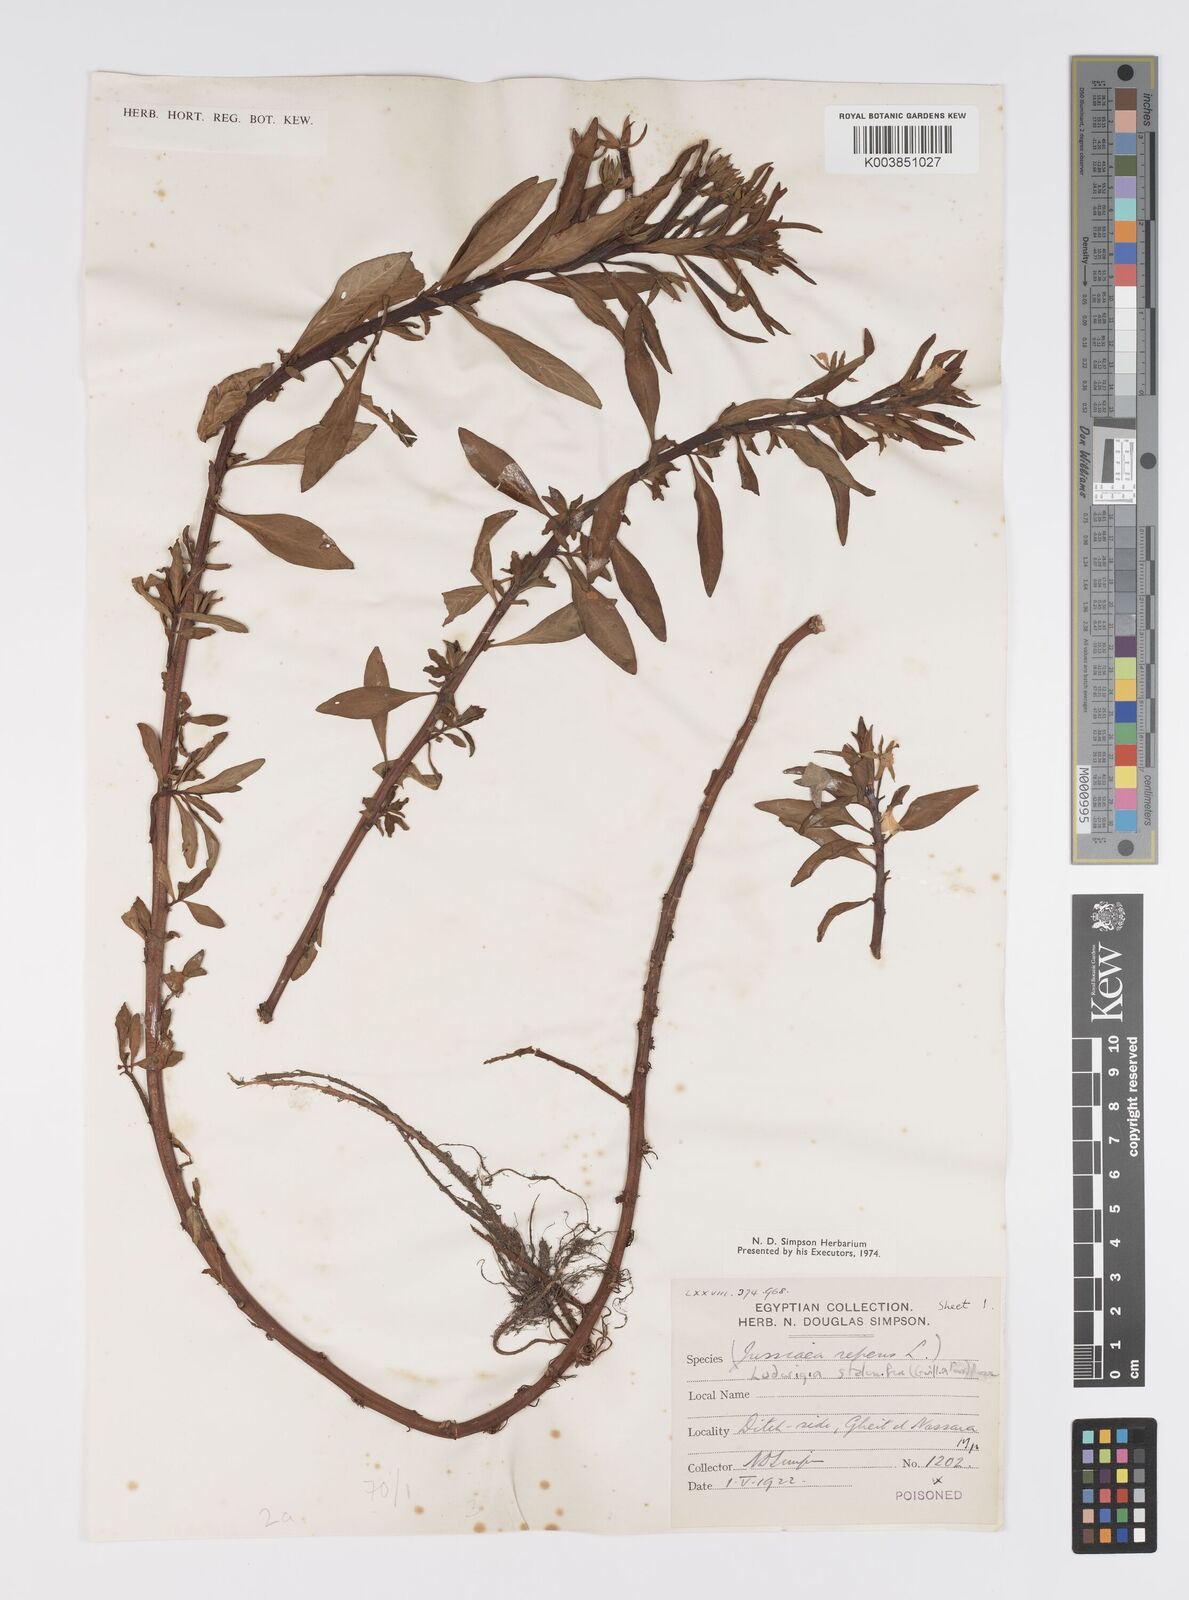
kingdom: Plantae
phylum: Tracheophyta
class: Magnoliopsida
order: Myrtales
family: Onagraceae
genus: Ludwigia
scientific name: Ludwigia adscendens
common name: Creeping water primrose
